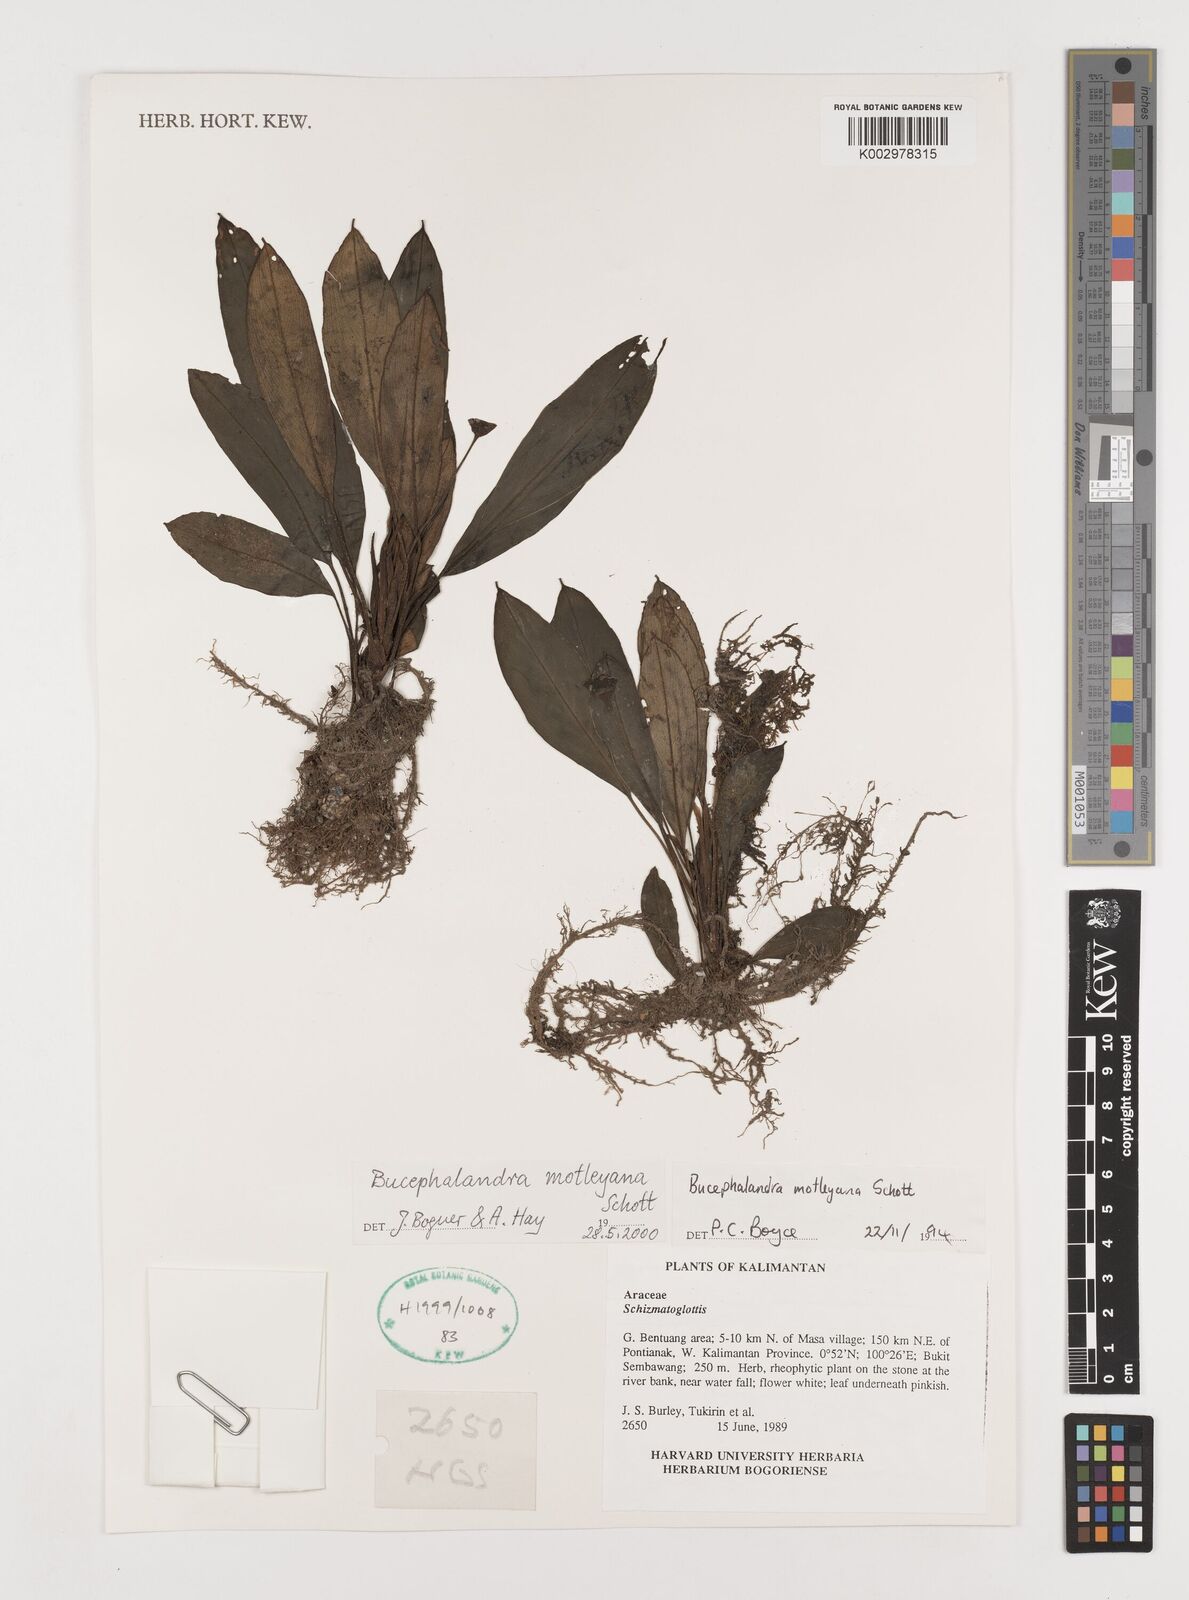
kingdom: Plantae
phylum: Tracheophyta
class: Liliopsida
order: Alismatales
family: Araceae
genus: Bucephalandra
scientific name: Bucephalandra motleyana
